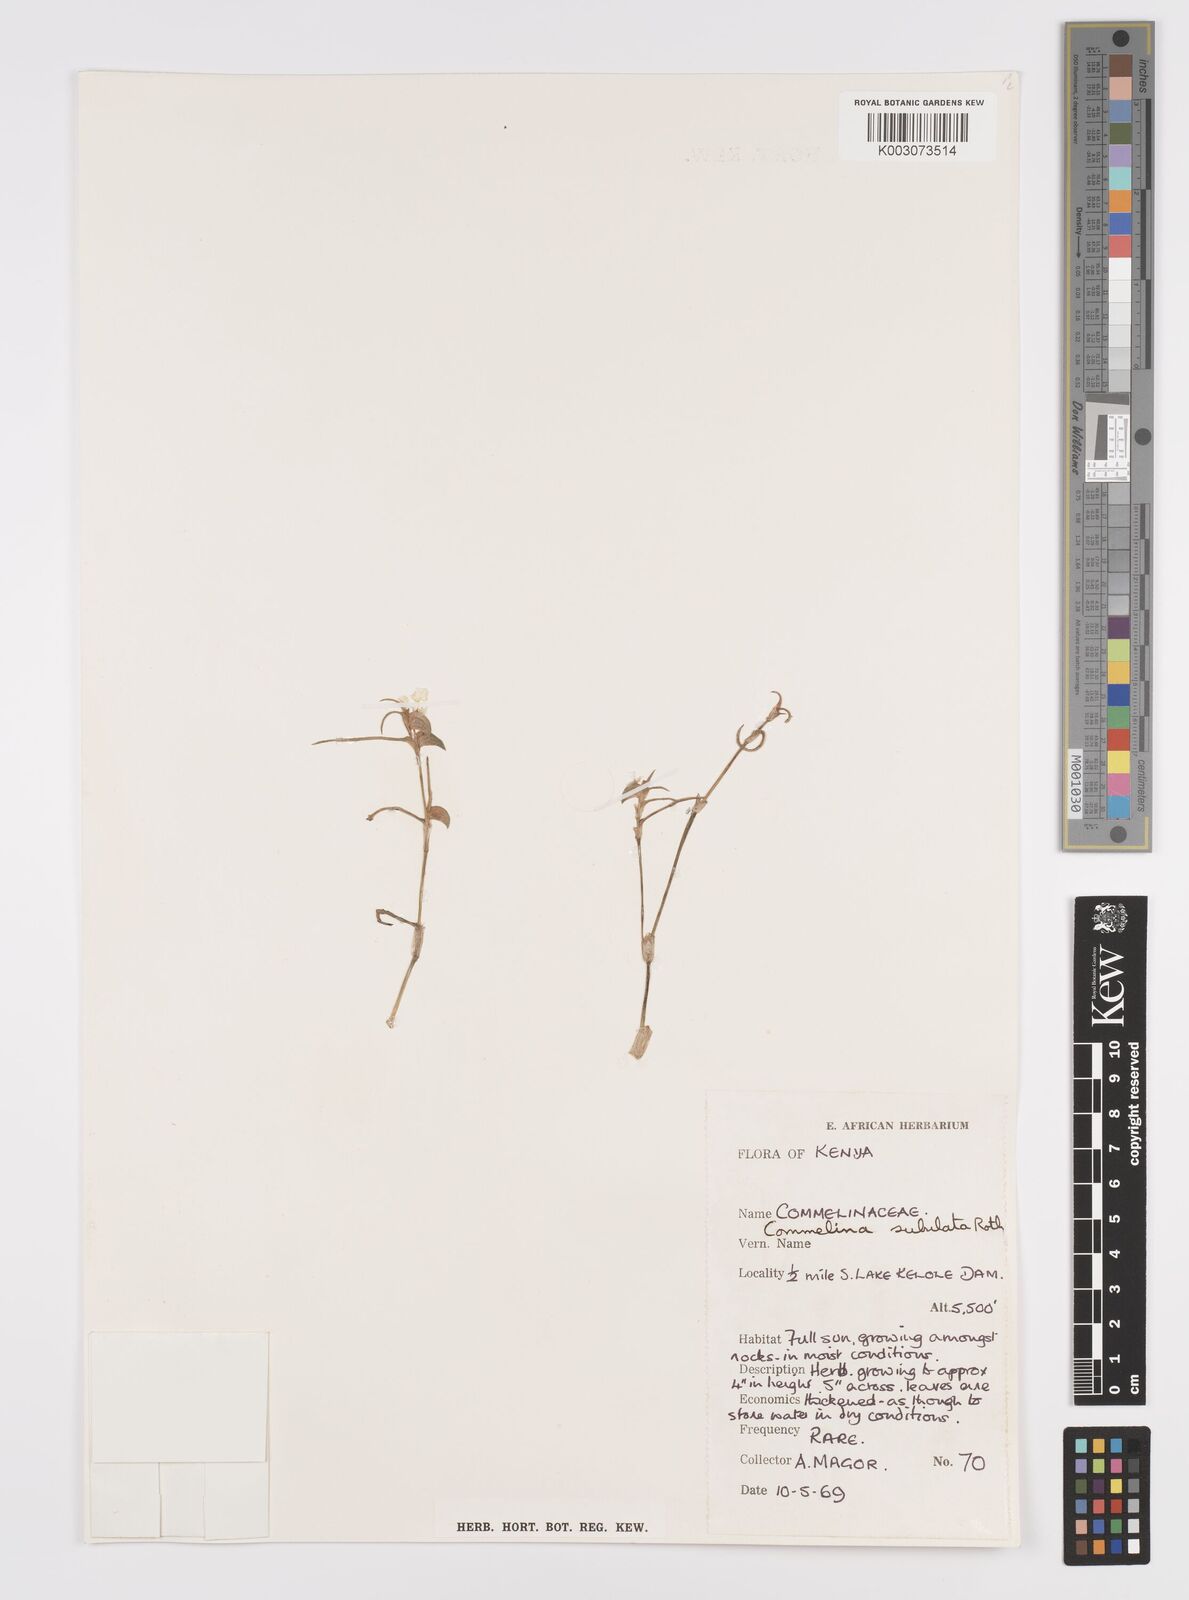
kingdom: Plantae
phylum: Tracheophyta
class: Liliopsida
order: Commelinales
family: Commelinaceae
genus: Commelina
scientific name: Commelina subulata
